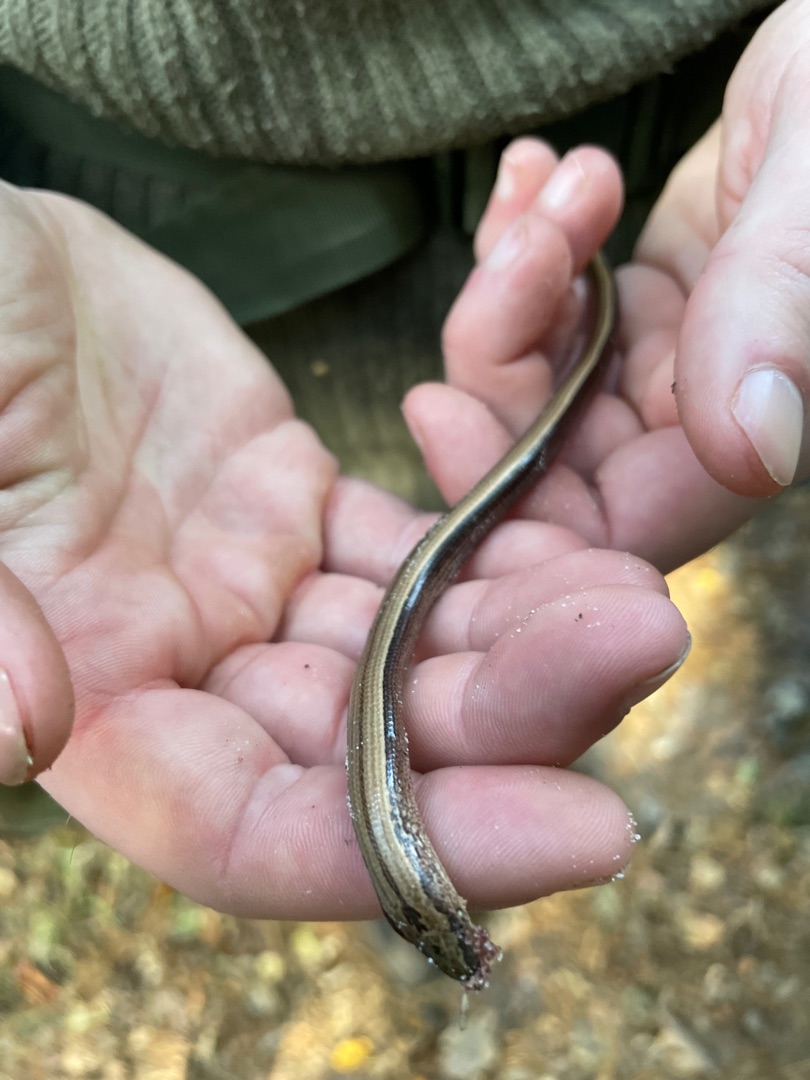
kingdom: Animalia
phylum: Chordata
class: Squamata
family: Anguidae
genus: Anguis
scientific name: Anguis fragilis
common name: Stålorm
